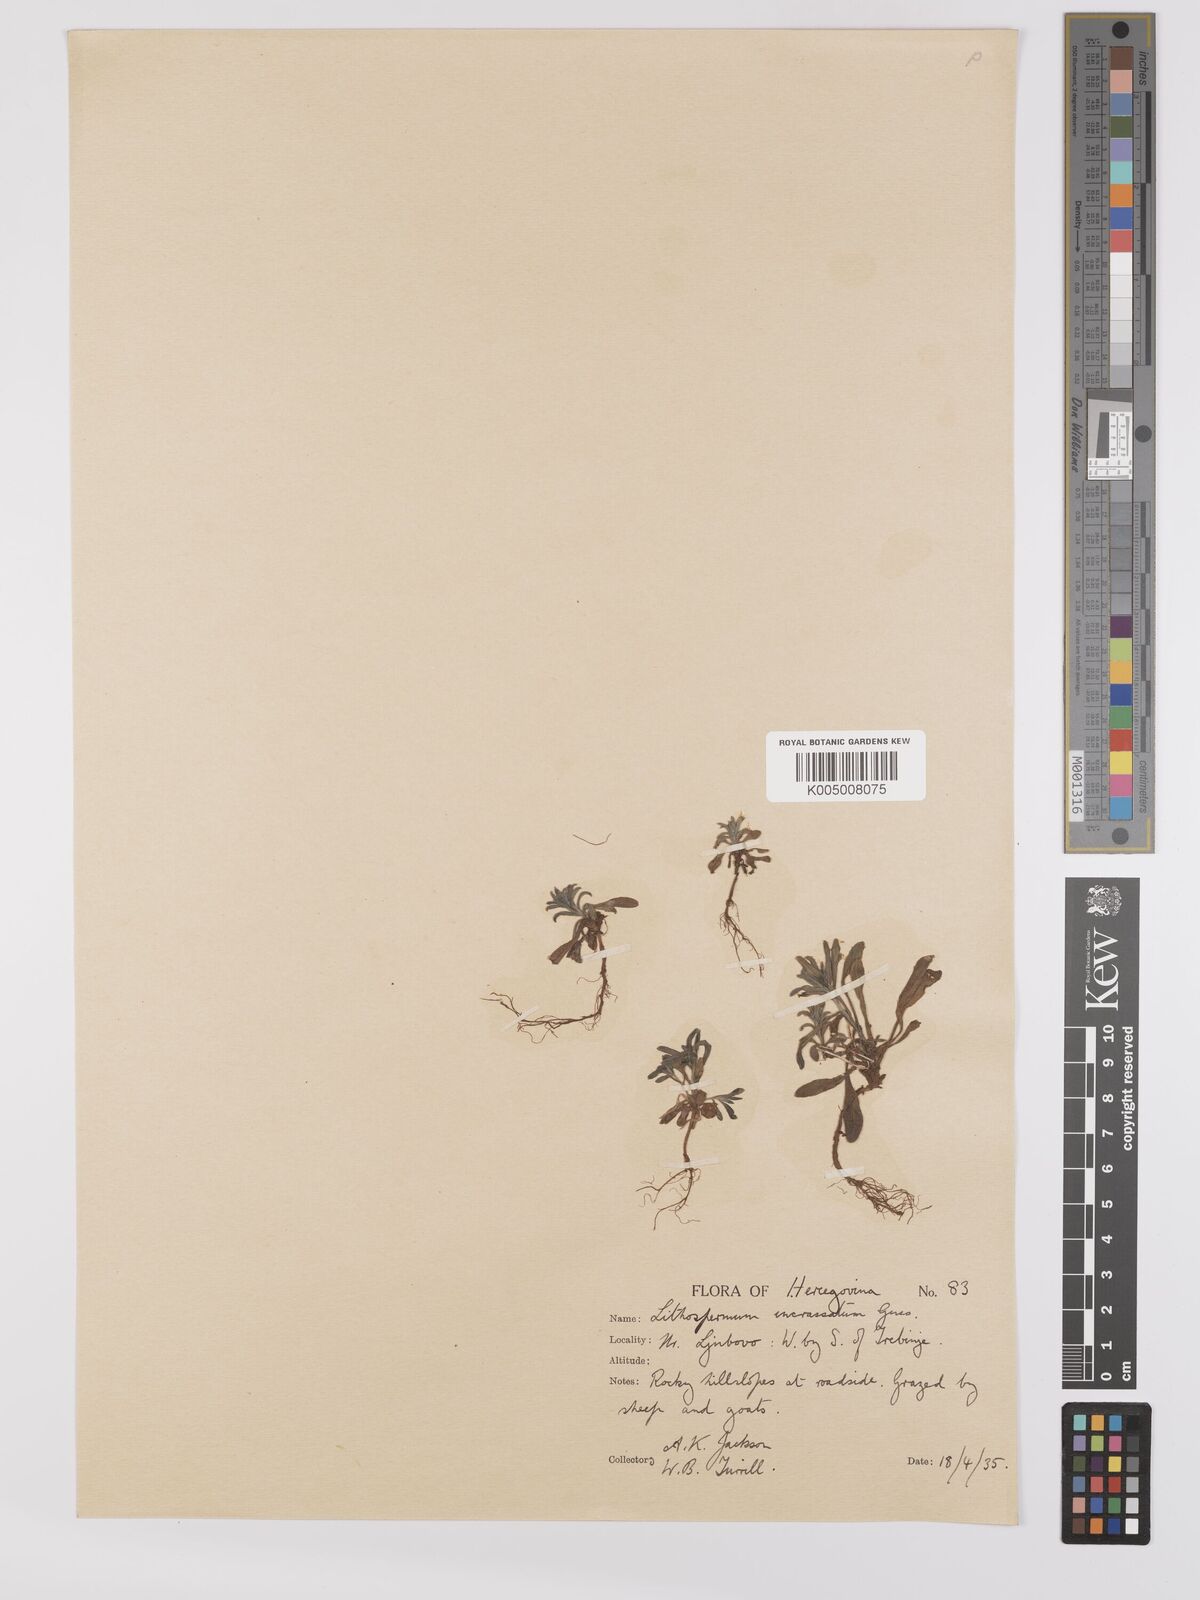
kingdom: Plantae
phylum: Tracheophyta
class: Magnoliopsida
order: Boraginales
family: Boraginaceae
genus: Buglossoides
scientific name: Buglossoides incrassata
